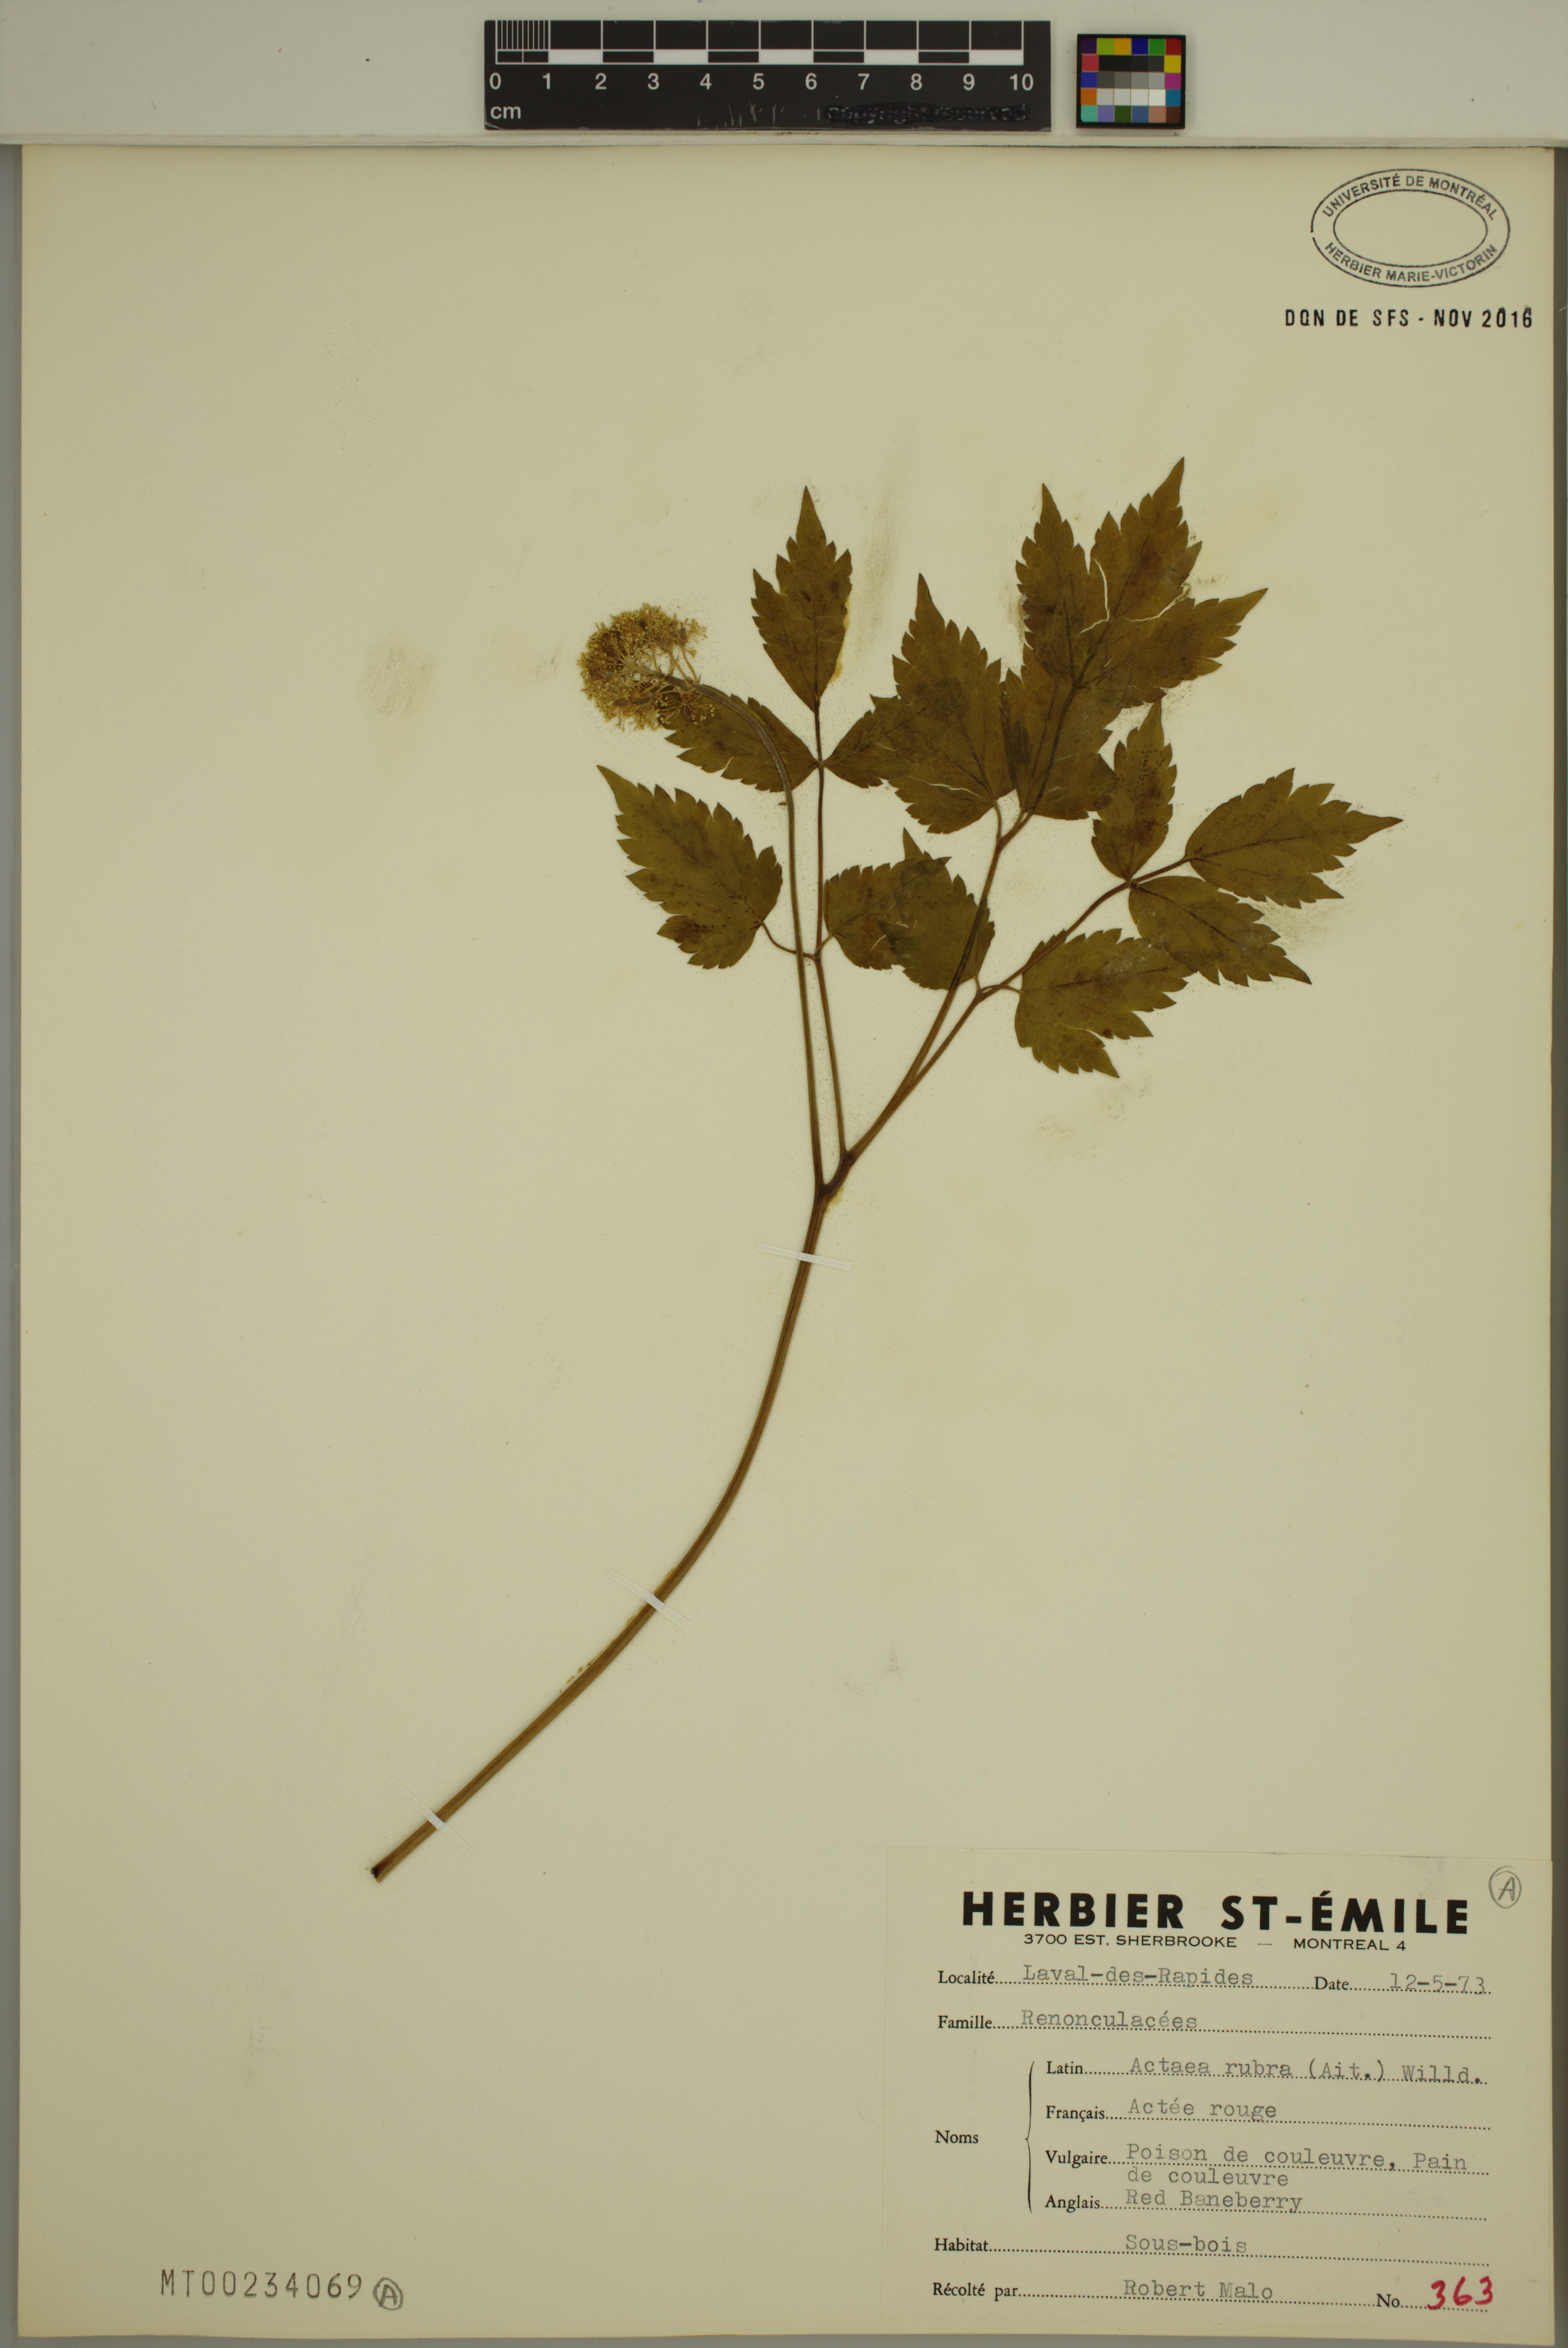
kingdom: Plantae
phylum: Tracheophyta
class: Magnoliopsida
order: Ranunculales
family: Ranunculaceae
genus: Actaea
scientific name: Actaea rubra
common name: Red baneberry
